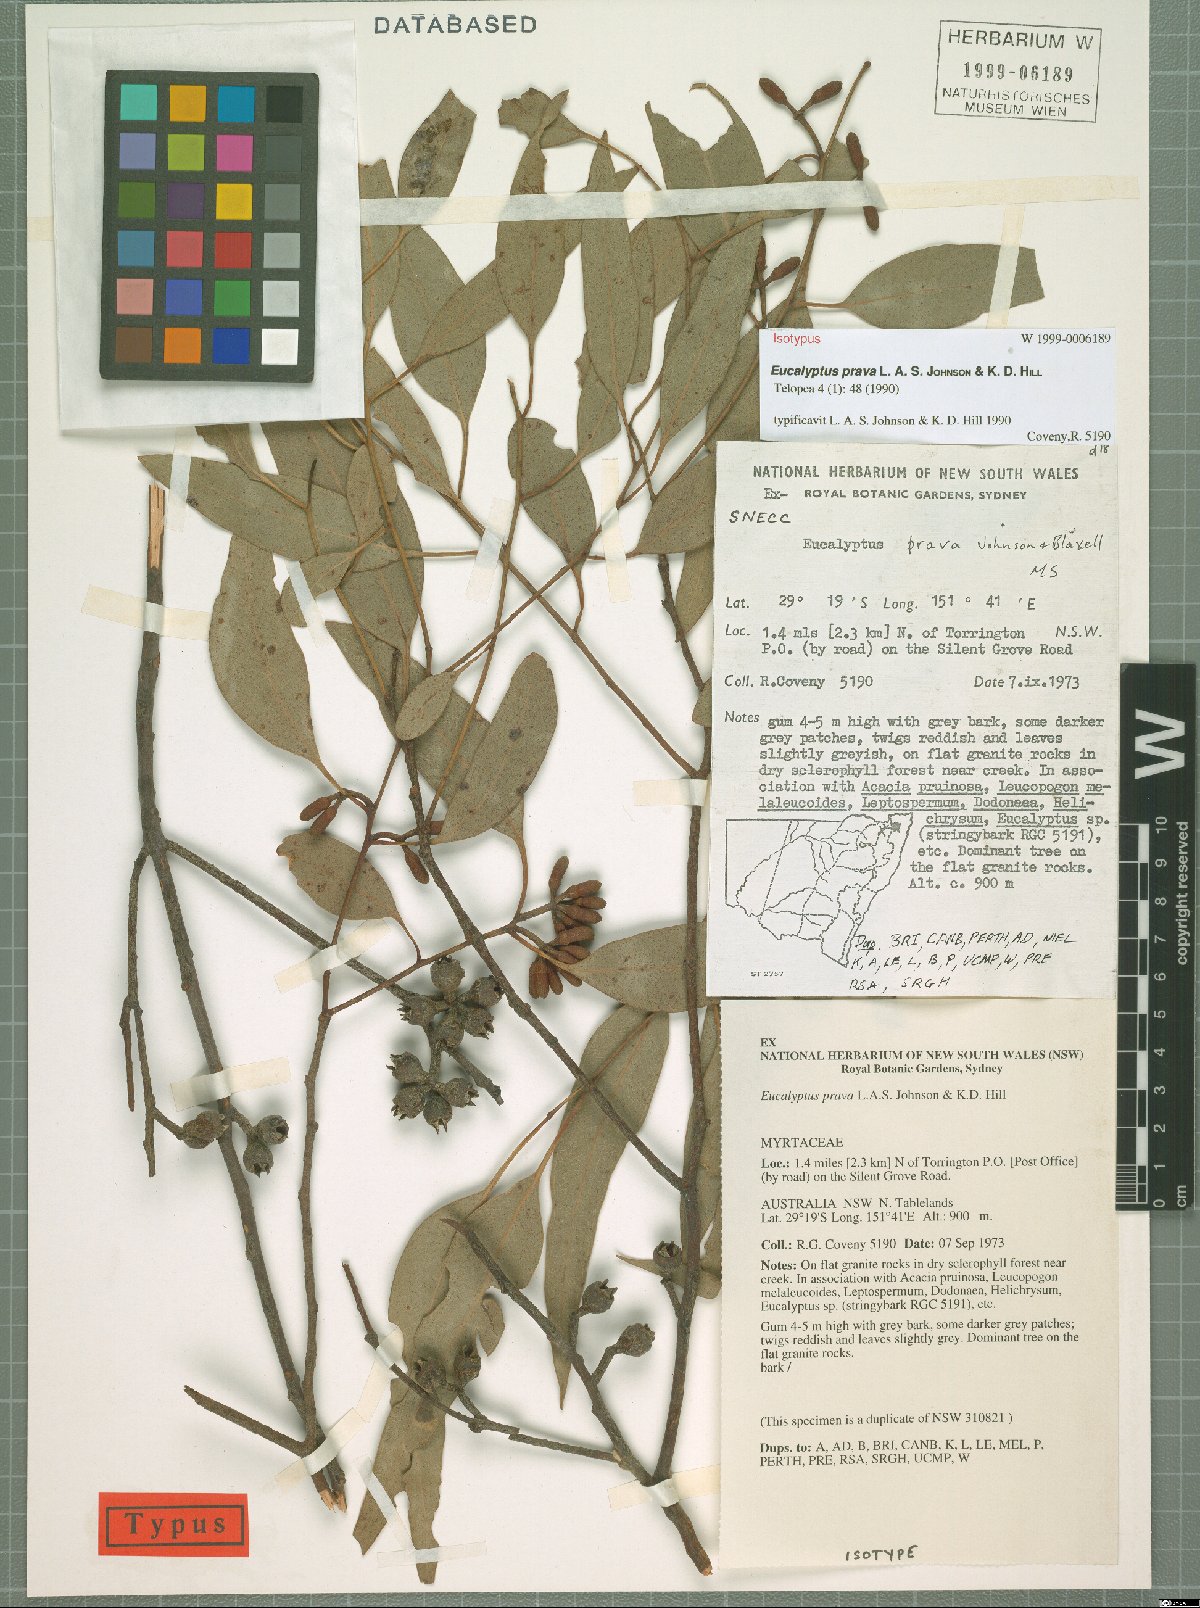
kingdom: Plantae
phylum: Tracheophyta
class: Magnoliopsida
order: Myrtales
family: Myrtaceae
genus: Eucalyptus
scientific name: Eucalyptus prava
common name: Orange gum
